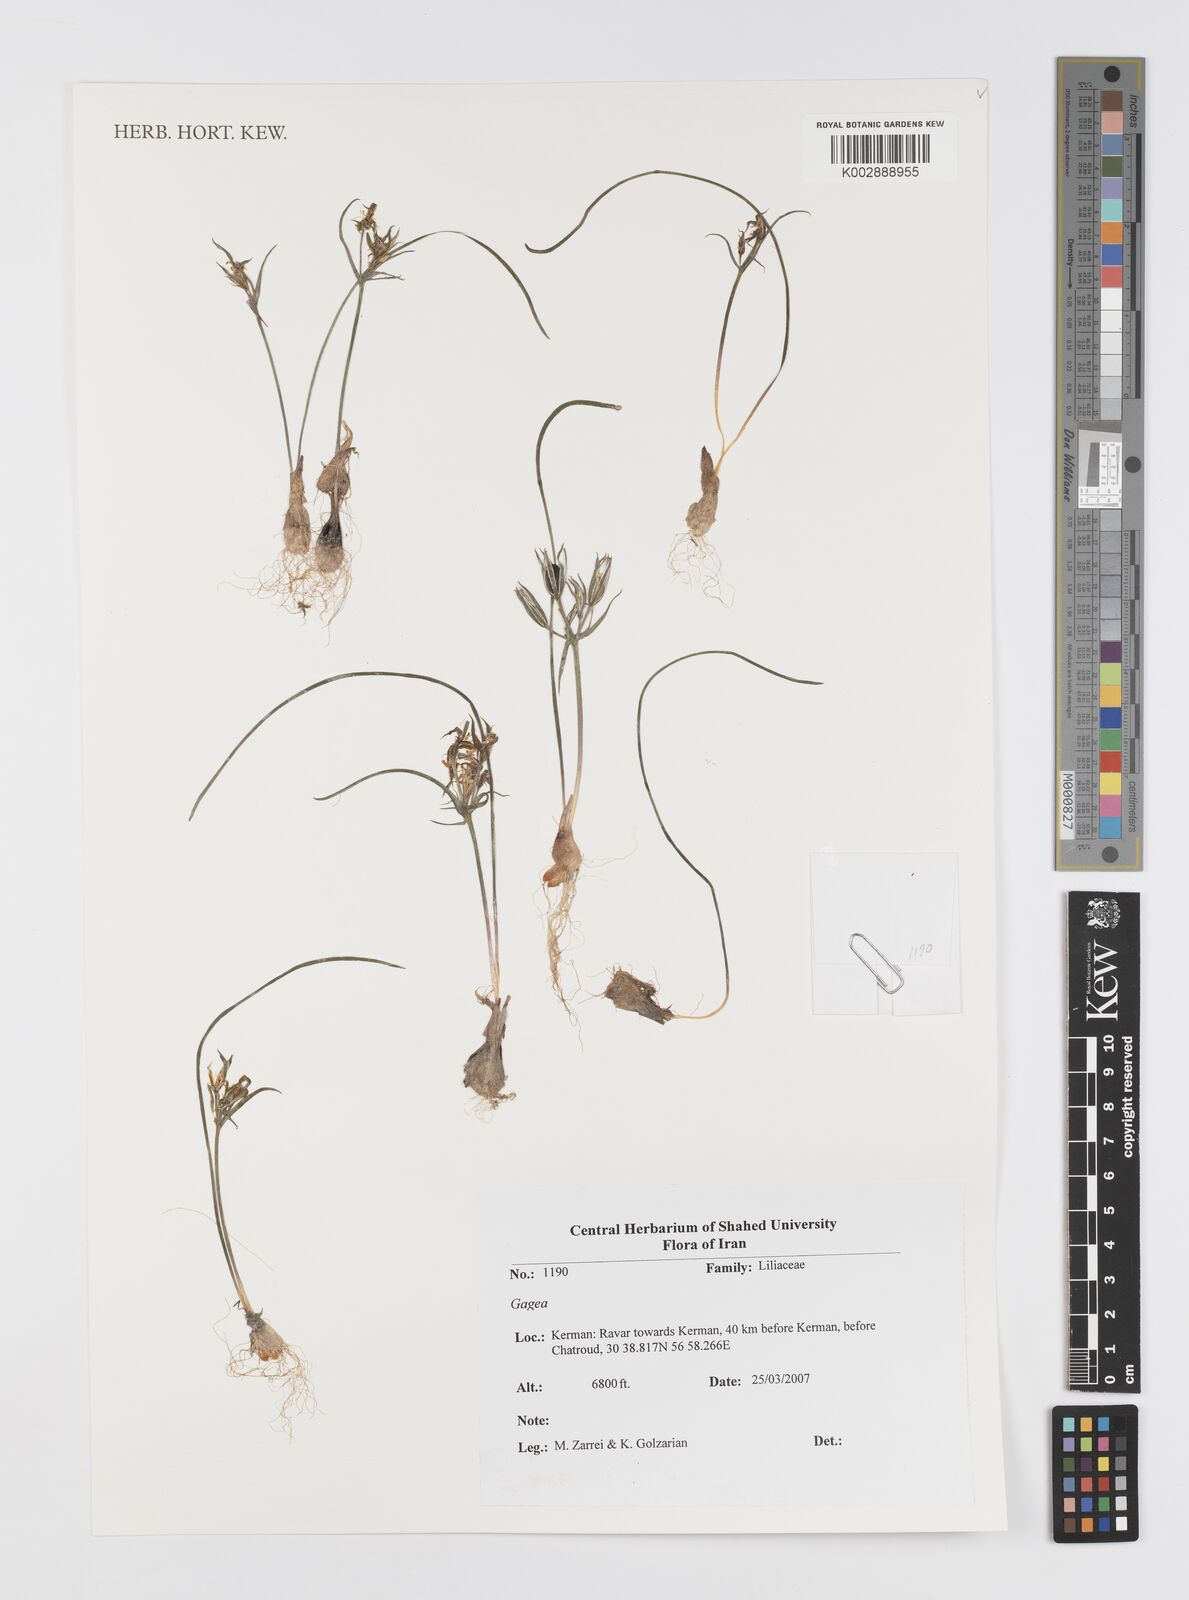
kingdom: Plantae
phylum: Tracheophyta
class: Liliopsida
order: Liliales
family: Liliaceae
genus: Gagea
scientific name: Gagea
